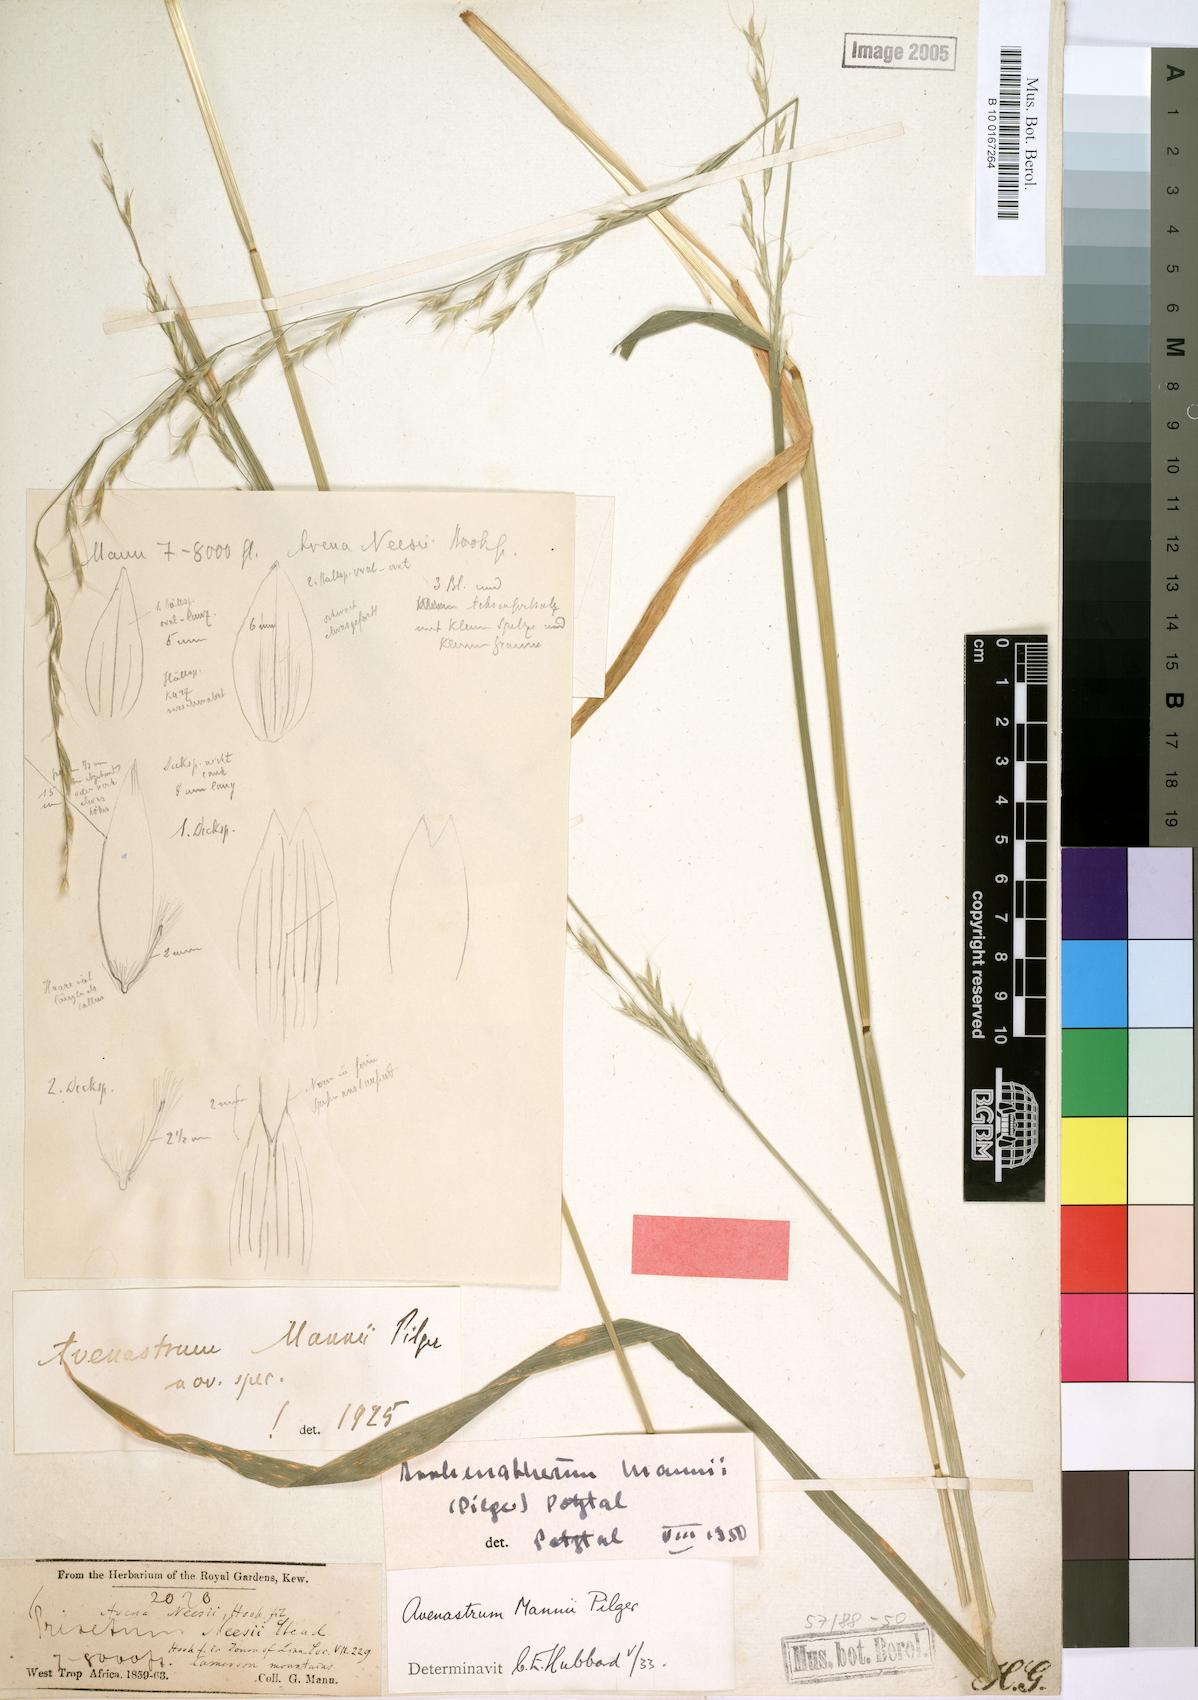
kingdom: Plantae
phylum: Tracheophyta
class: Liliopsida
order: Poales
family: Poaceae
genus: Trisetopsis
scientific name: Trisetopsis mannii
